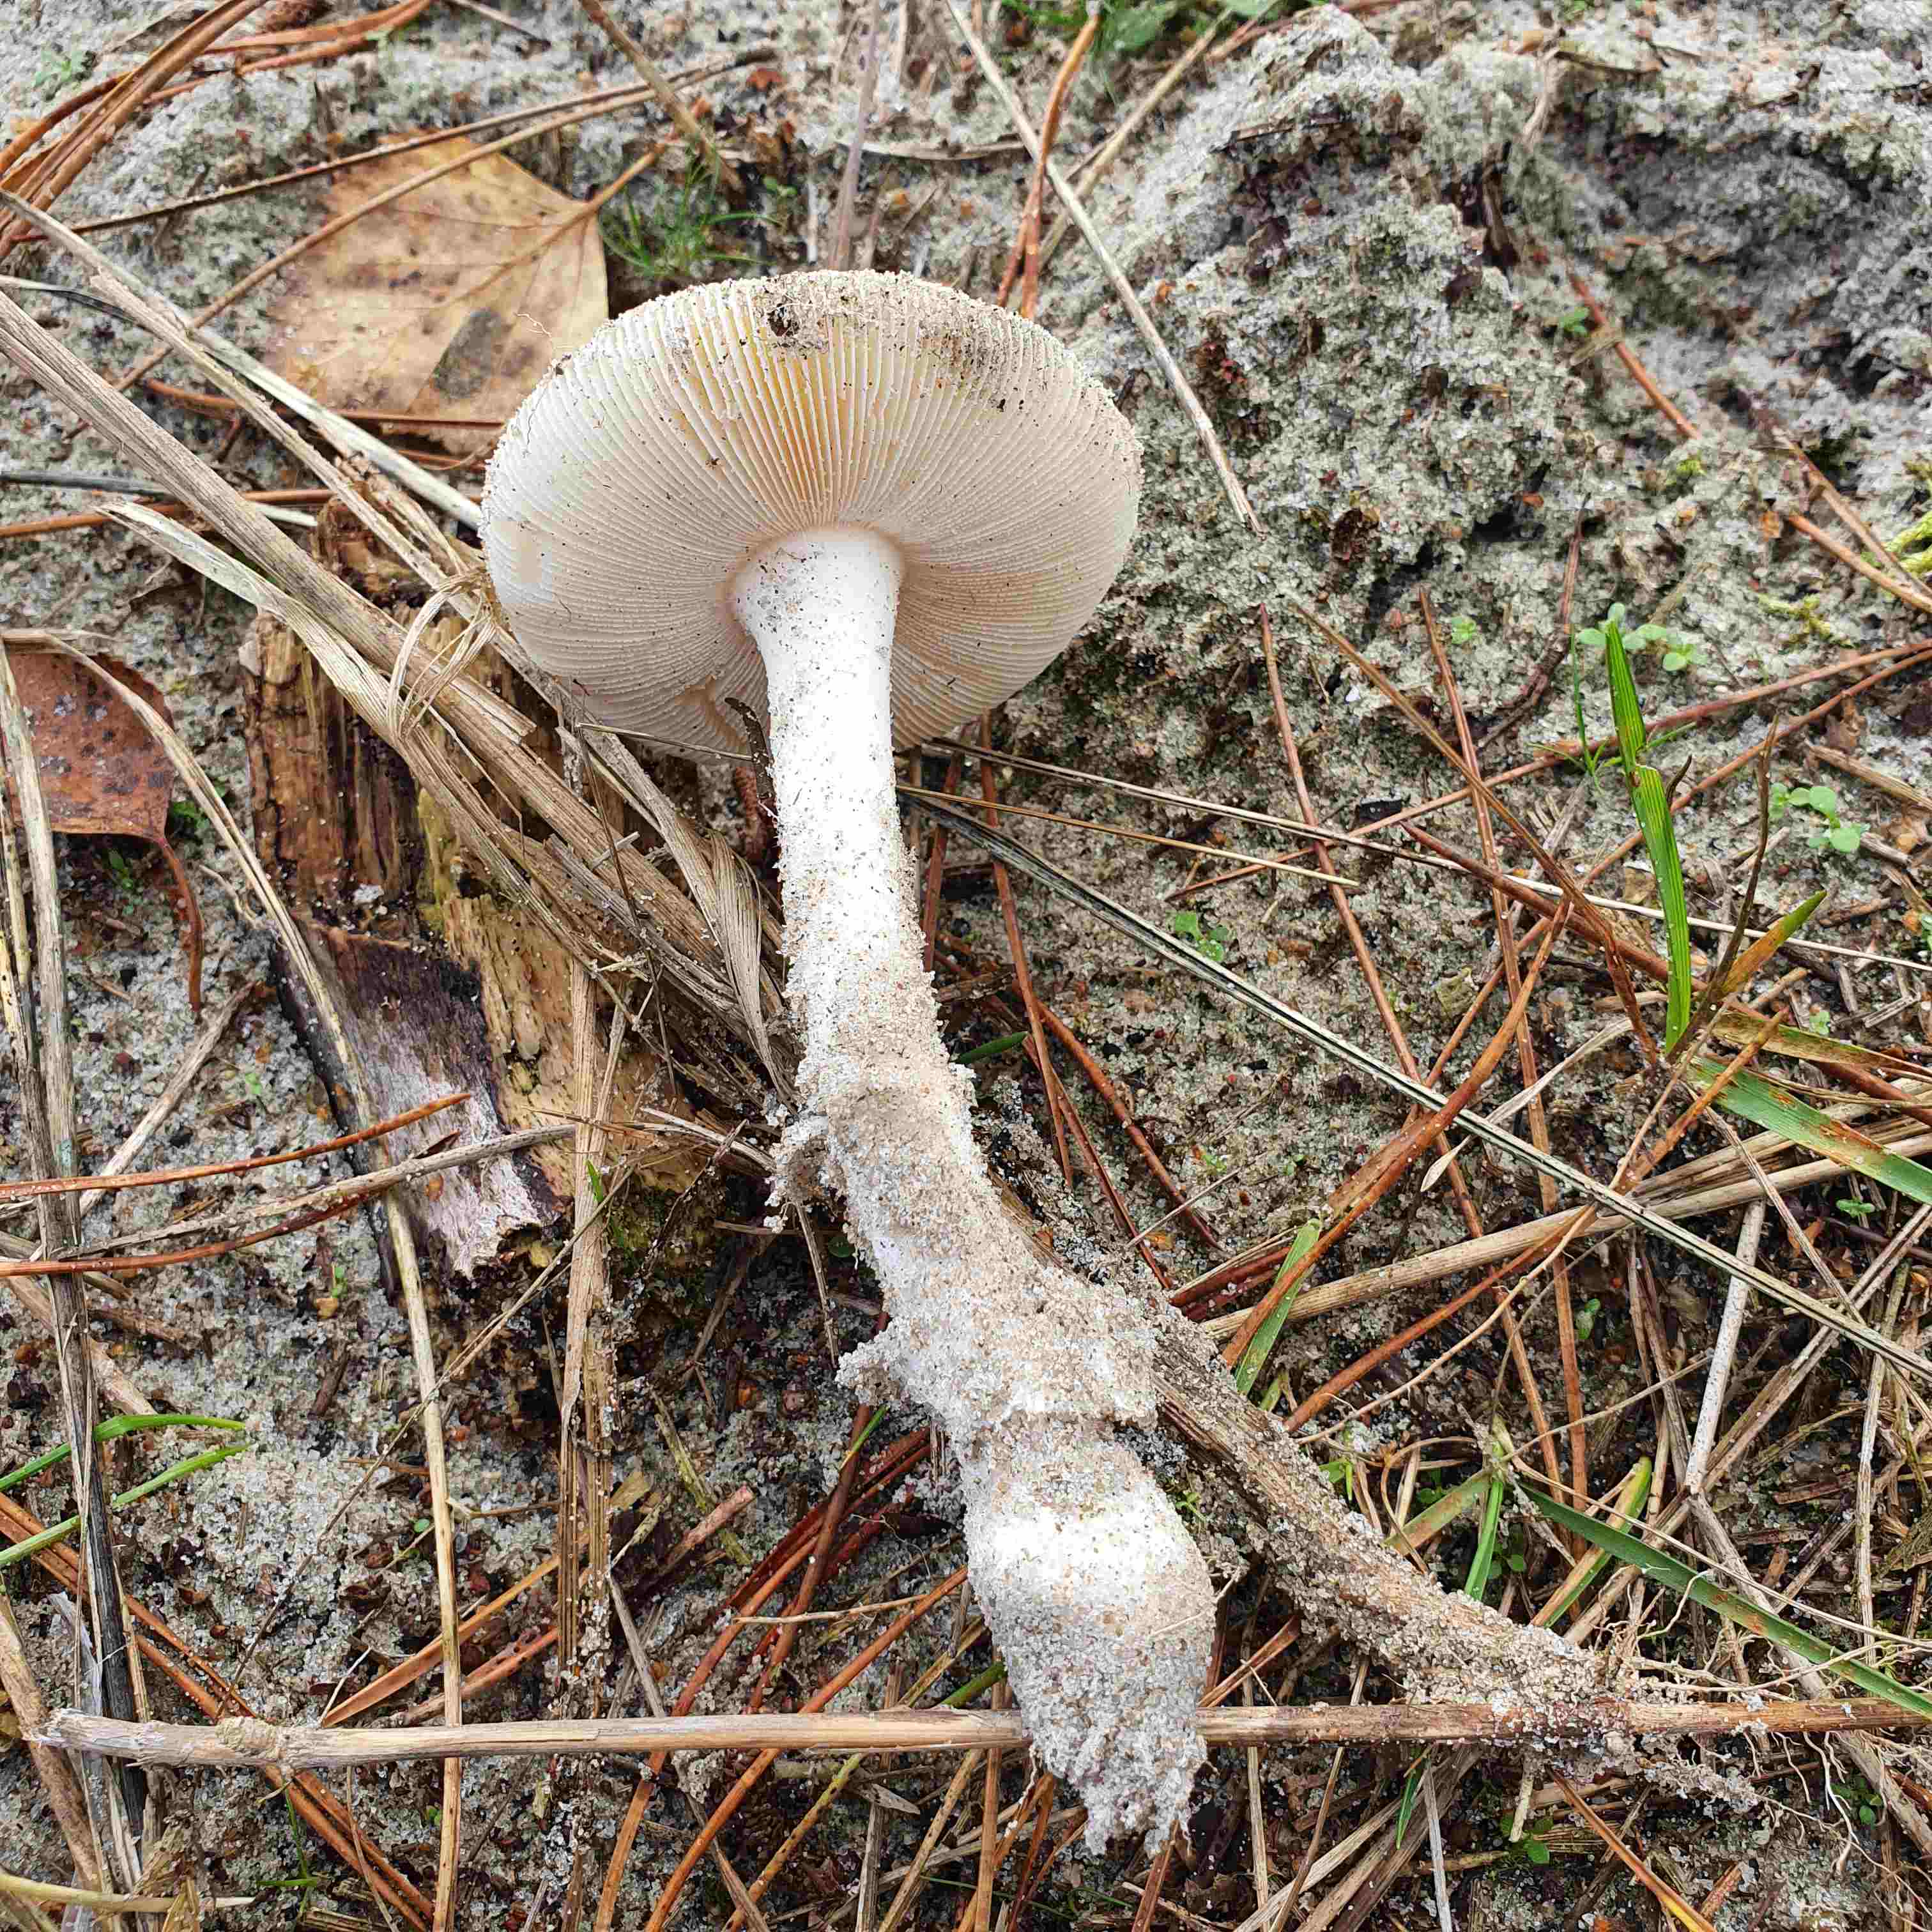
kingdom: Fungi
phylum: Basidiomycota
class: Agaricomycetes
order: Agaricales
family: Amanitaceae
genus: Amanita
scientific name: Amanita gemmata
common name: okkergul fluesvamp
